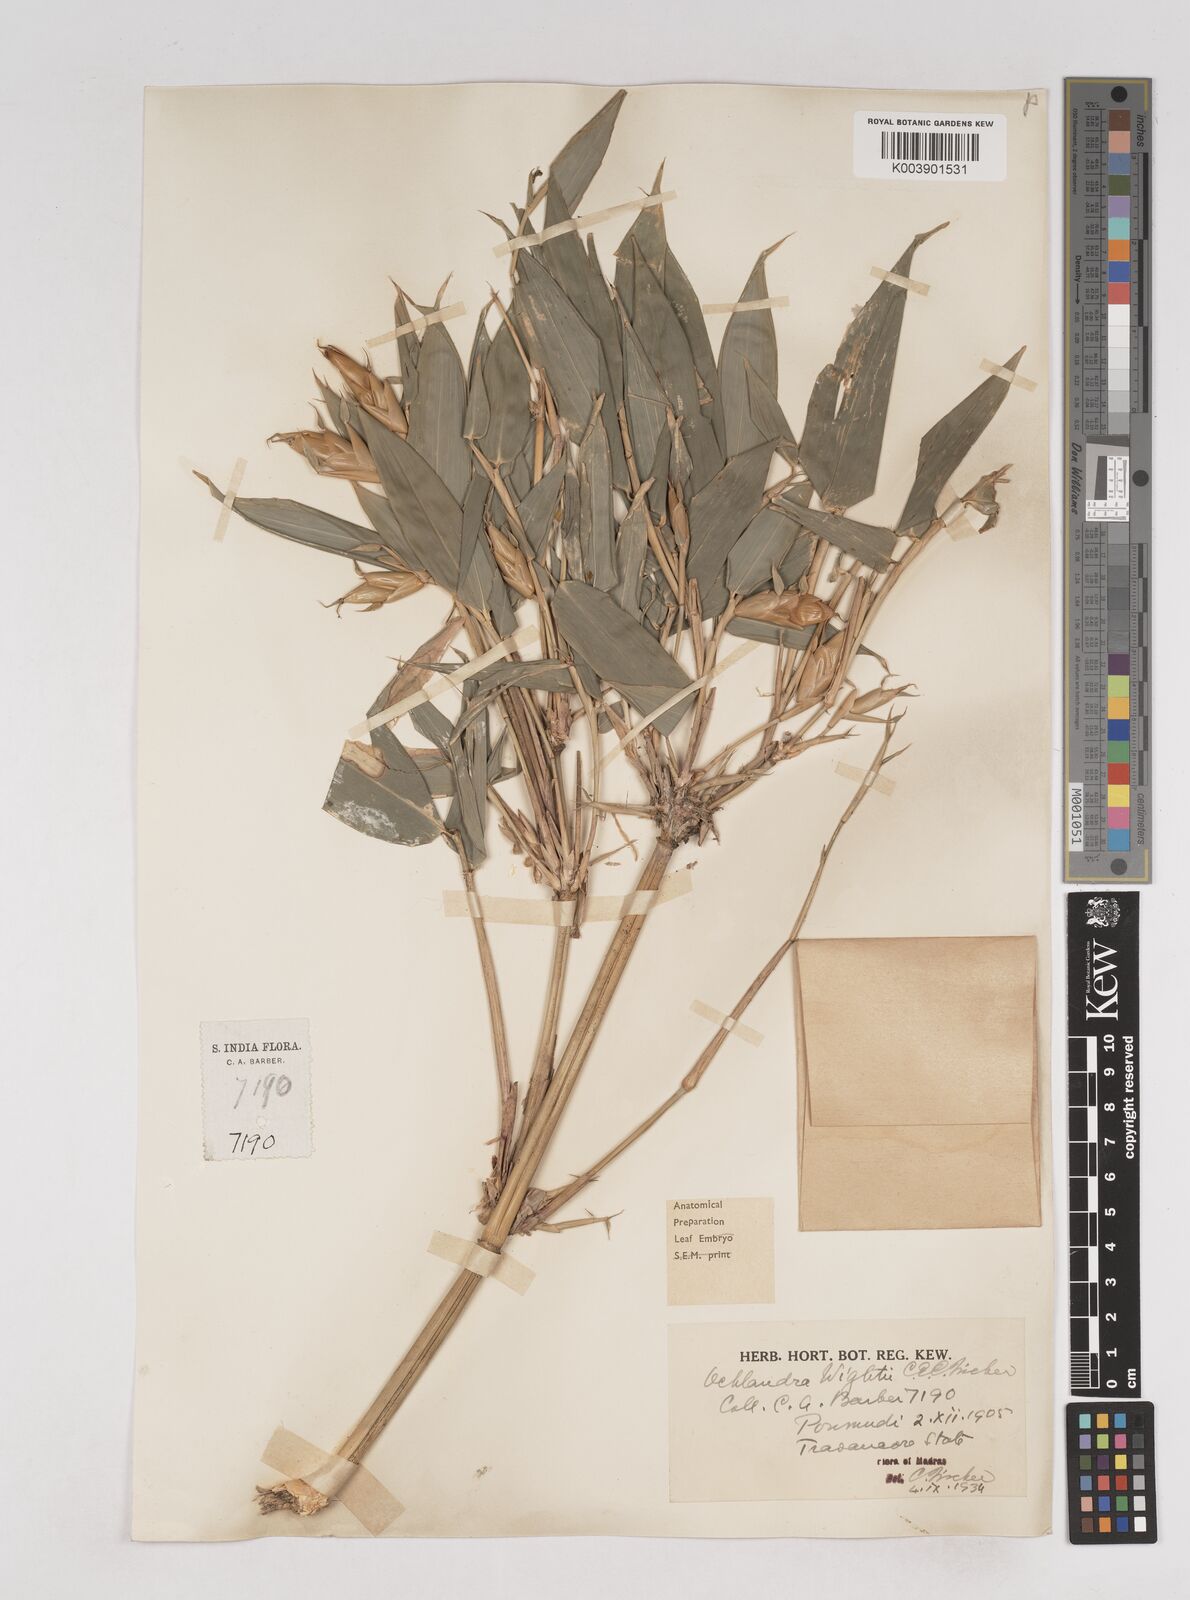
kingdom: Plantae
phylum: Tracheophyta
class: Liliopsida
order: Poales
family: Poaceae
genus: Ochlandra
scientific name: Ochlandra wightii
